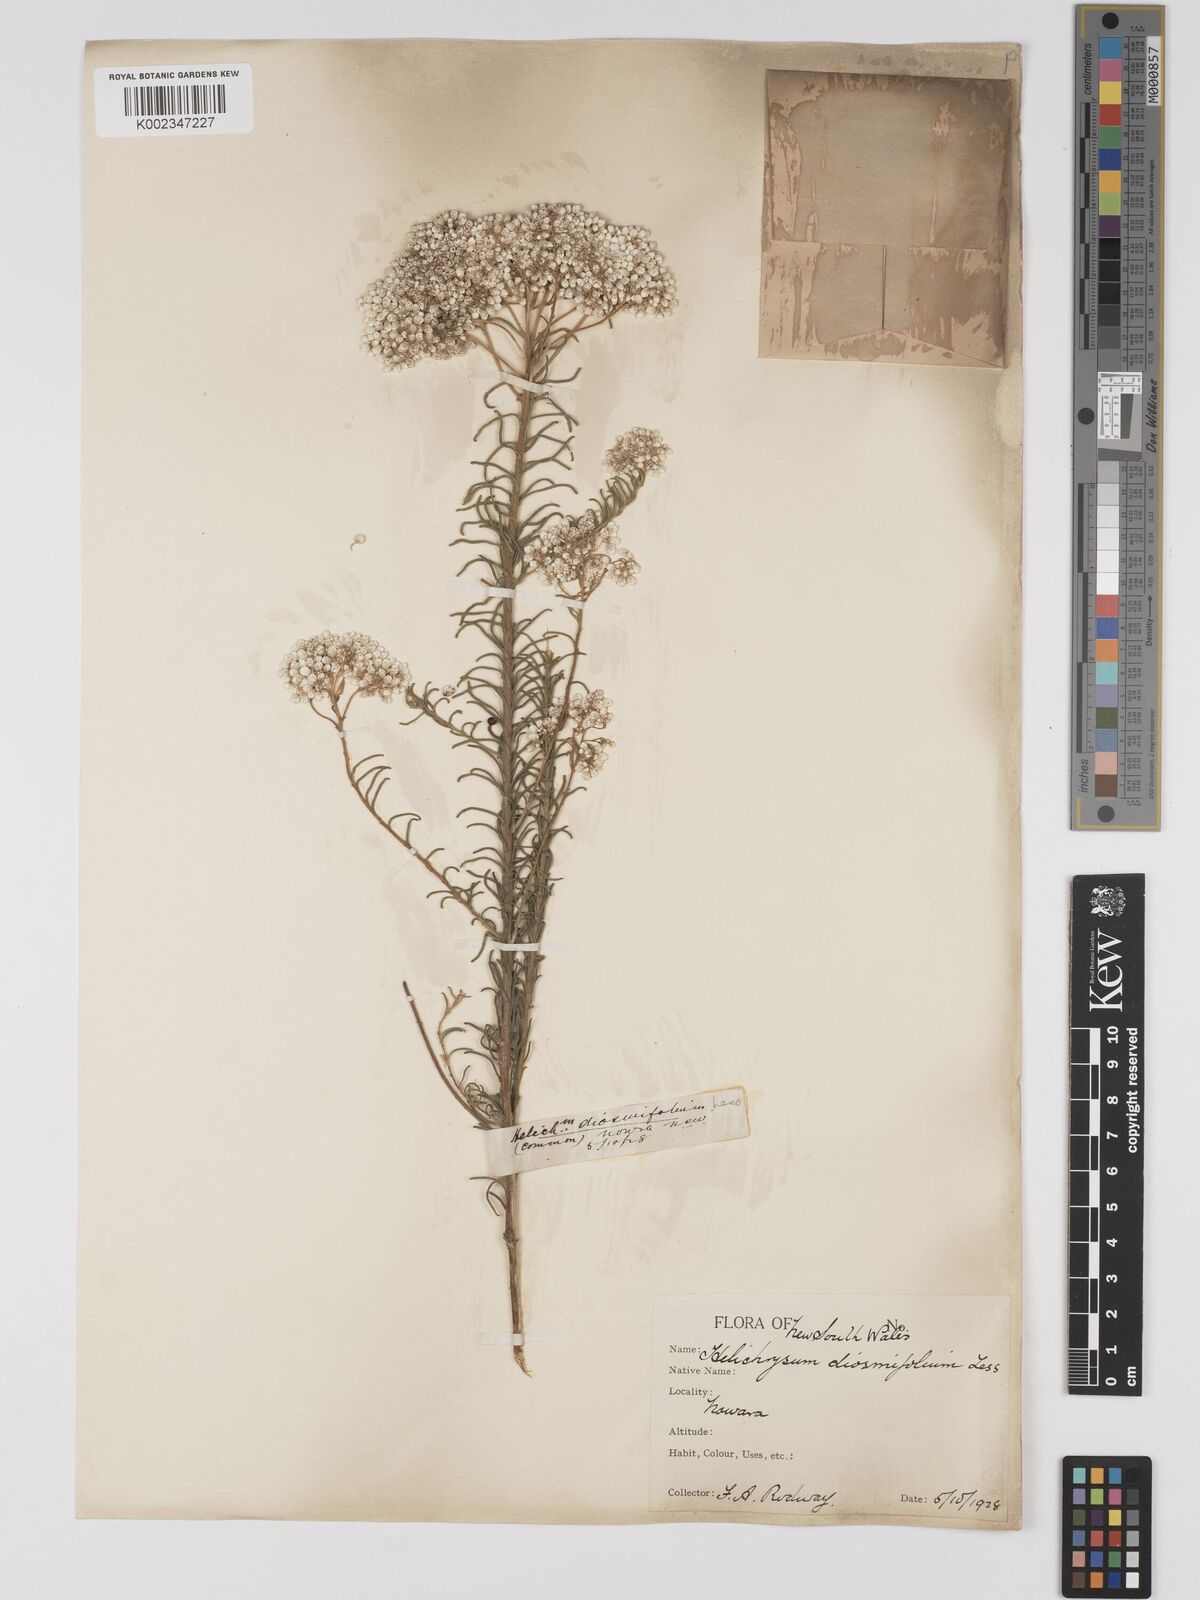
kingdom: Plantae
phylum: Tracheophyta
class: Magnoliopsida
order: Asterales
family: Asteraceae
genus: Ozothamnus
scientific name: Ozothamnus diosmifolius
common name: White-dogwood
